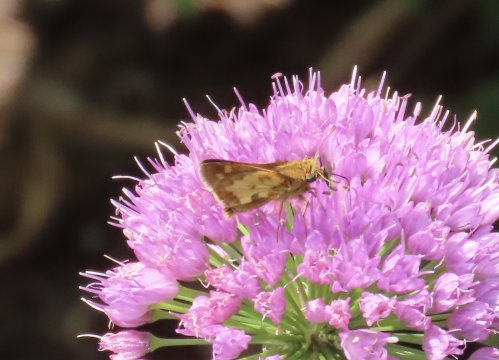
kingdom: Animalia
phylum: Arthropoda
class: Insecta
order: Lepidoptera
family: Hesperiidae
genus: Polites
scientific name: Polites coras
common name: Peck's Skipper
